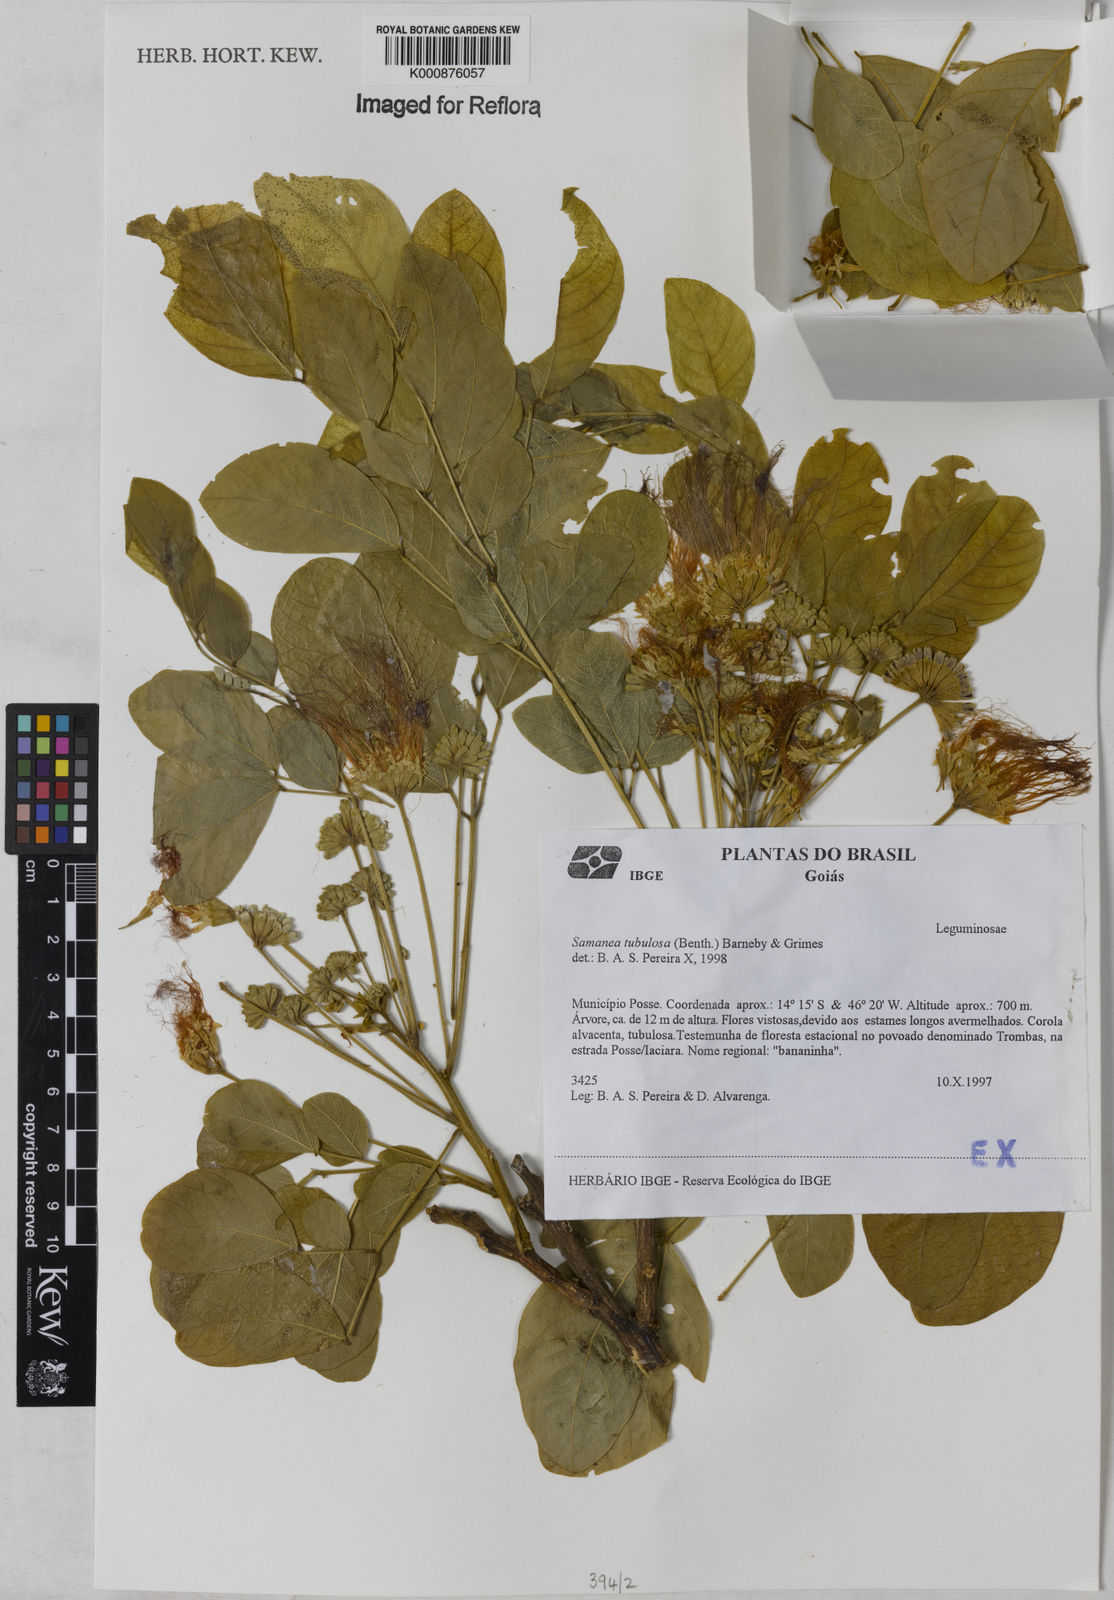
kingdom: Plantae
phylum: Tracheophyta
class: Magnoliopsida
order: Fabales
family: Fabaceae
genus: Samanea
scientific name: Samanea tubulosa
